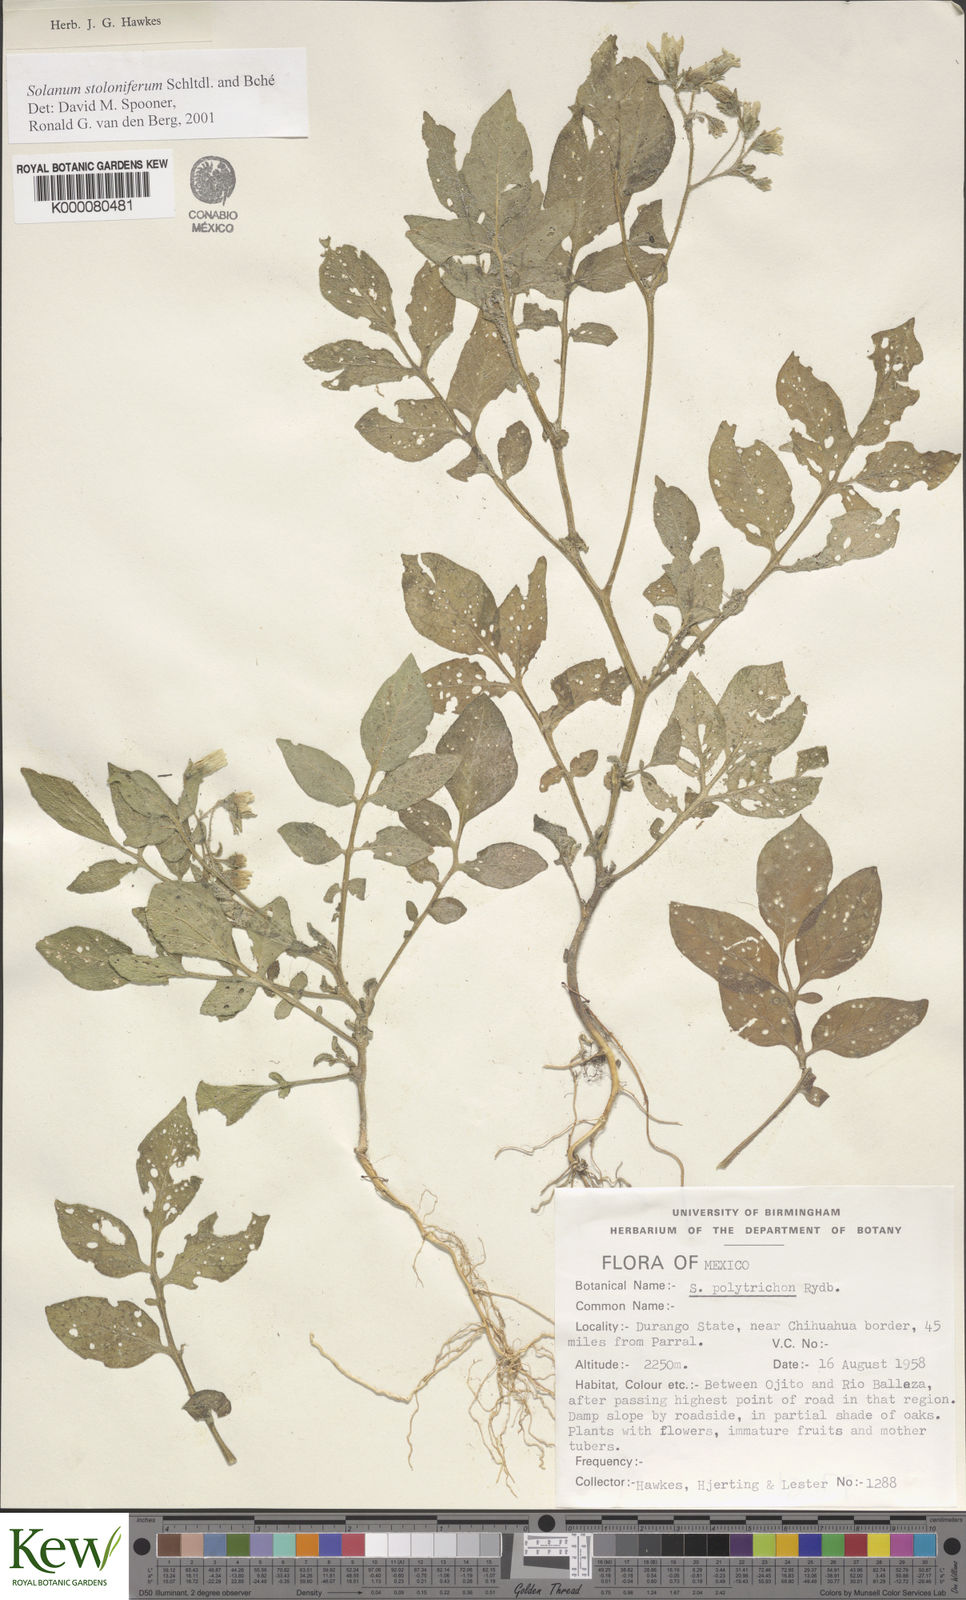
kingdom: Plantae
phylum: Tracheophyta
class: Magnoliopsida
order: Solanales
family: Solanaceae
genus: Solanum
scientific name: Solanum stoloniferum
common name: Fendler's nighshade
